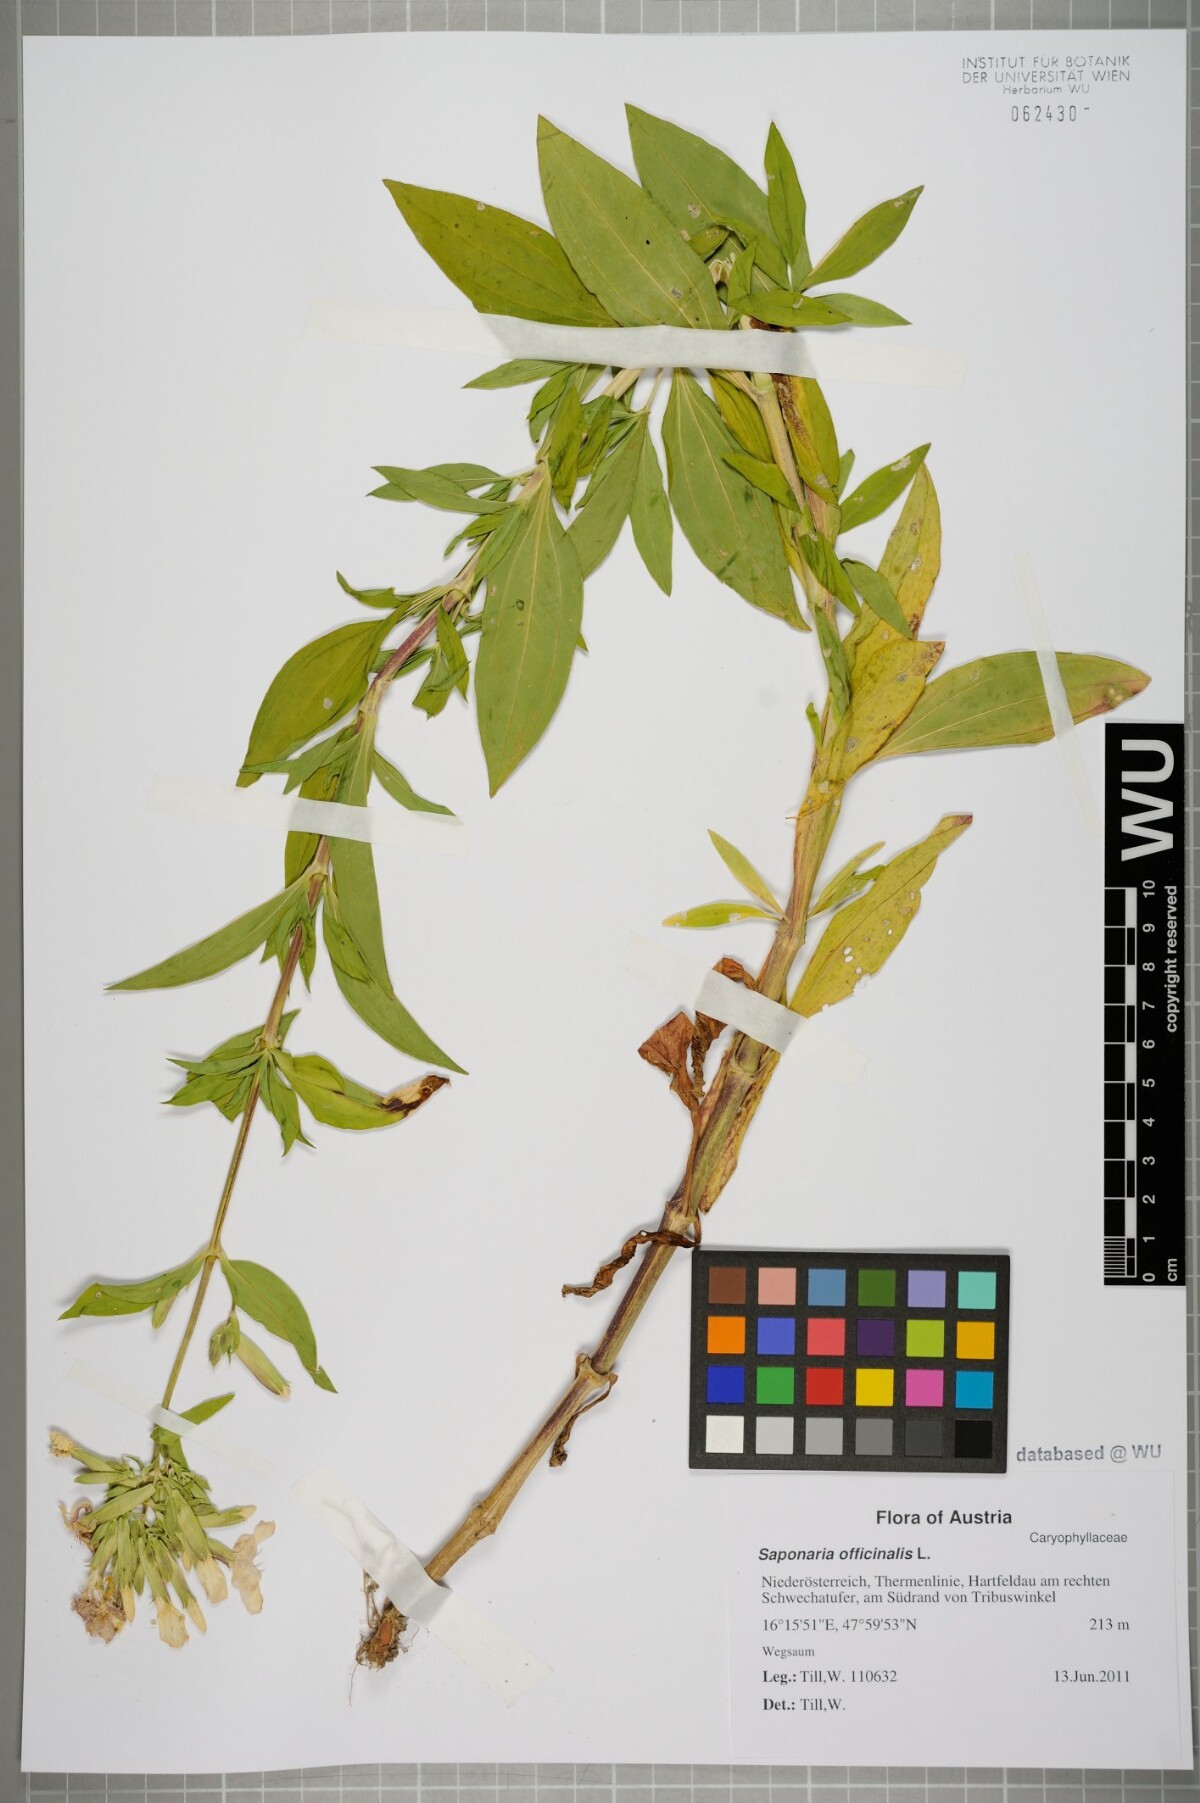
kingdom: Plantae
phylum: Tracheophyta
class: Magnoliopsida
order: Caryophyllales
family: Caryophyllaceae
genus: Saponaria
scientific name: Saponaria officinalis
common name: Soapwort
